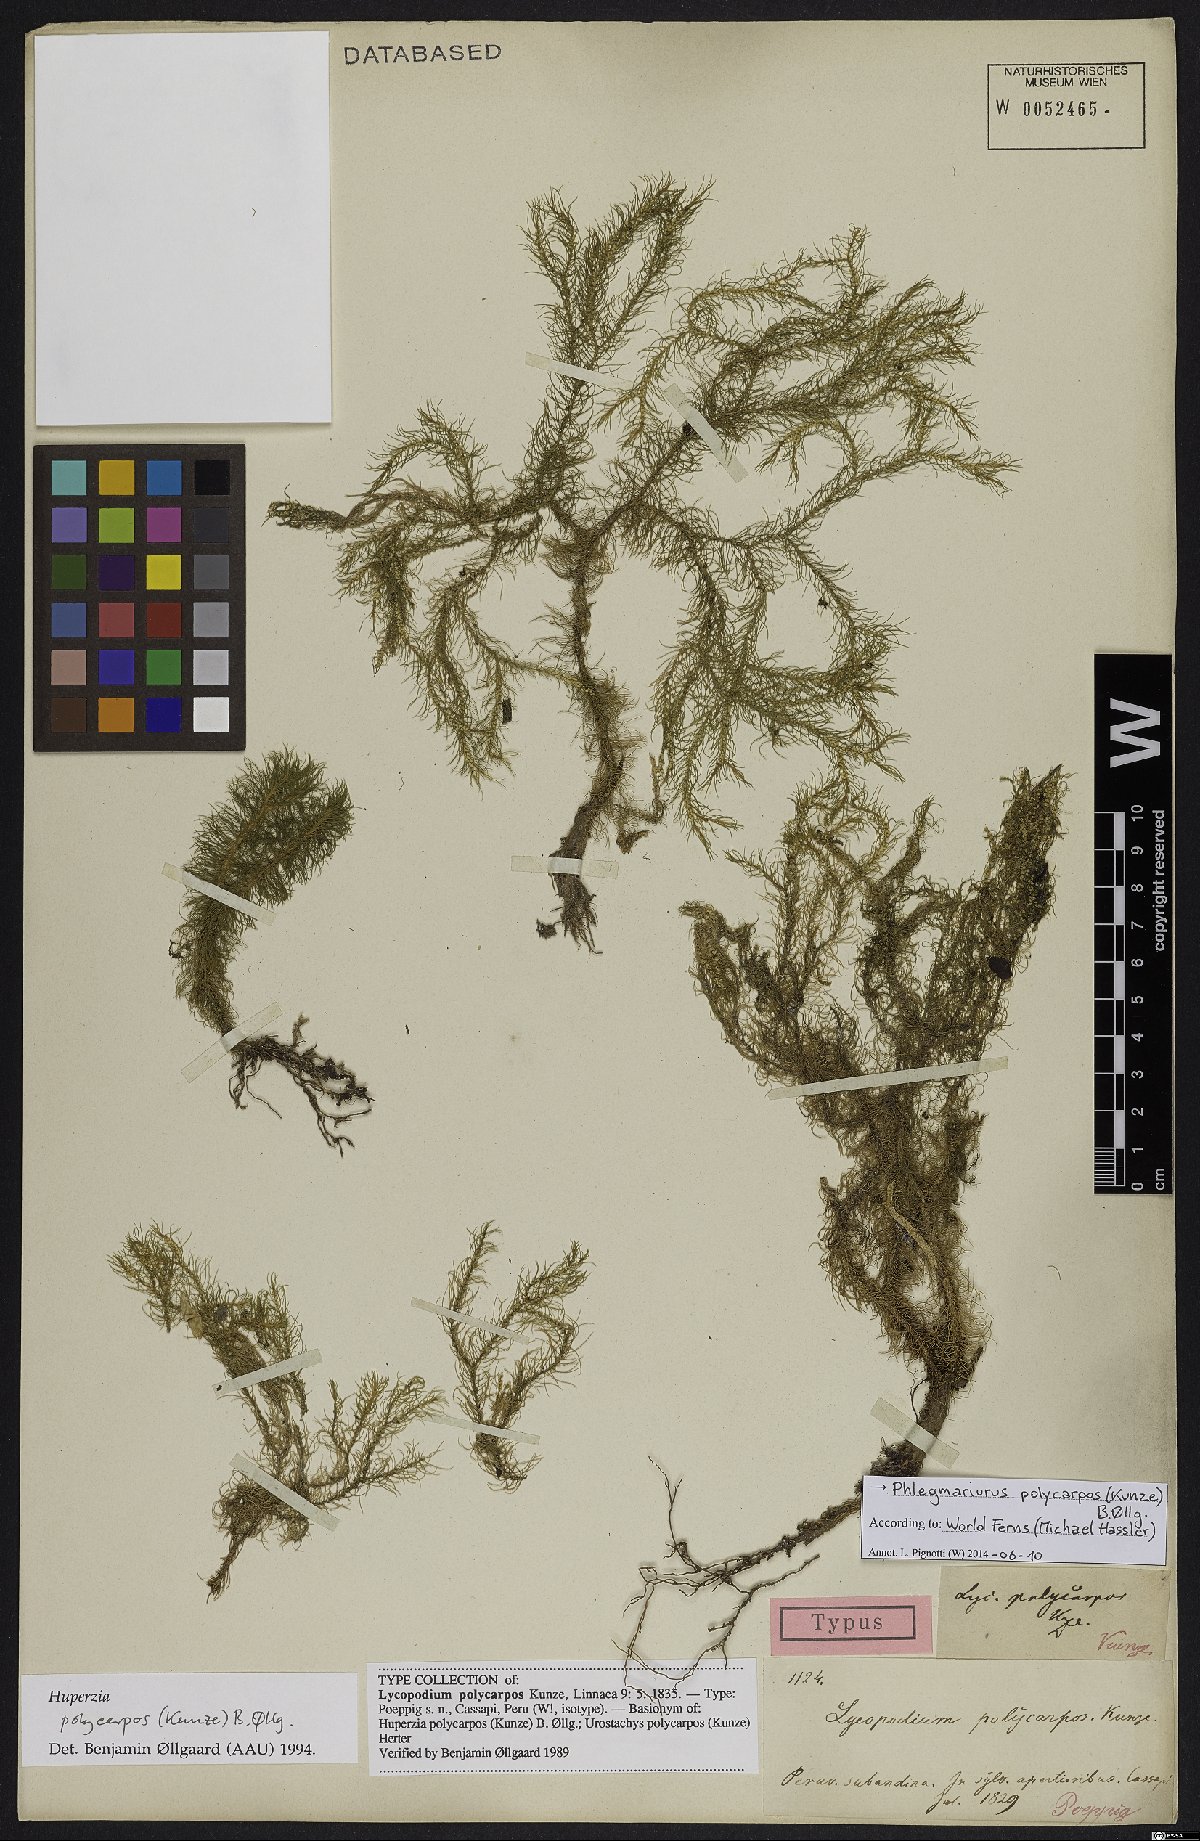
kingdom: Plantae
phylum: Tracheophyta
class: Lycopodiopsida
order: Lycopodiales
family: Lycopodiaceae
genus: Phlegmariurus
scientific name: Phlegmariurus polycarpos
